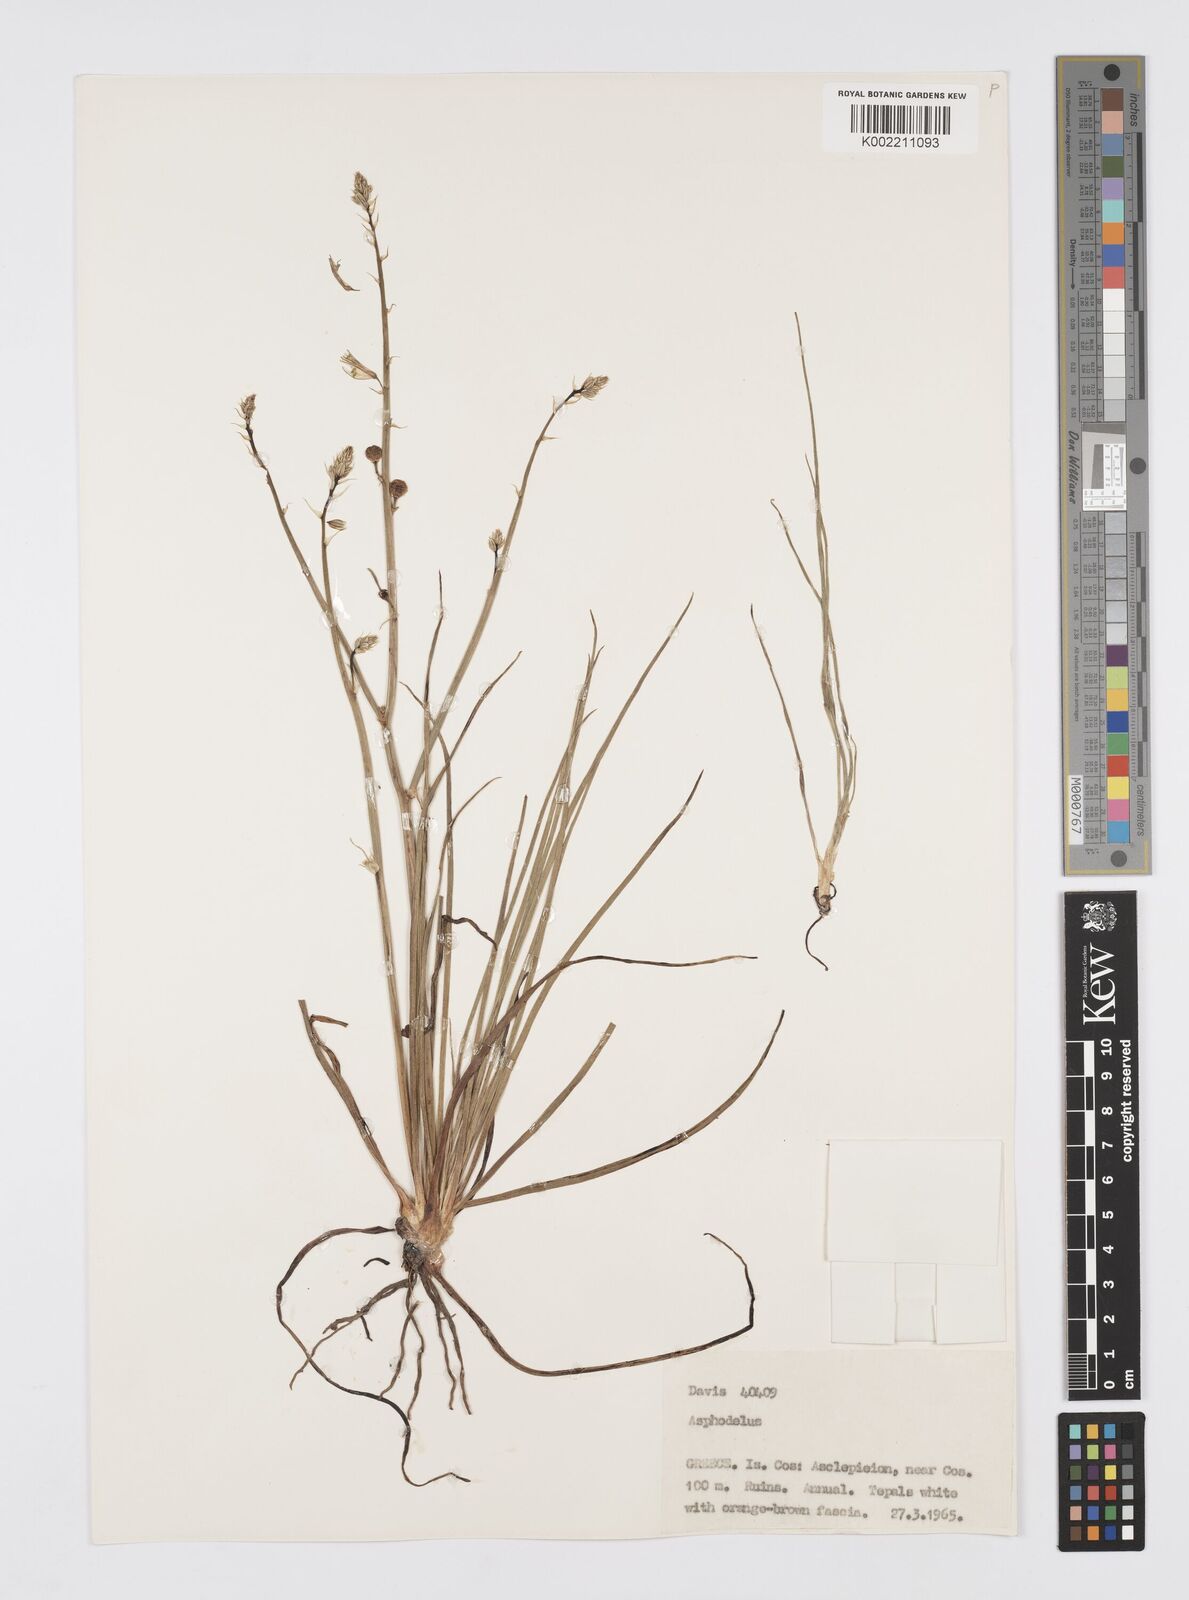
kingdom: Plantae
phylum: Tracheophyta
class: Liliopsida
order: Asparagales
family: Asphodelaceae
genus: Asphodelus
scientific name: Asphodelus fistulosus
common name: Onionweed
